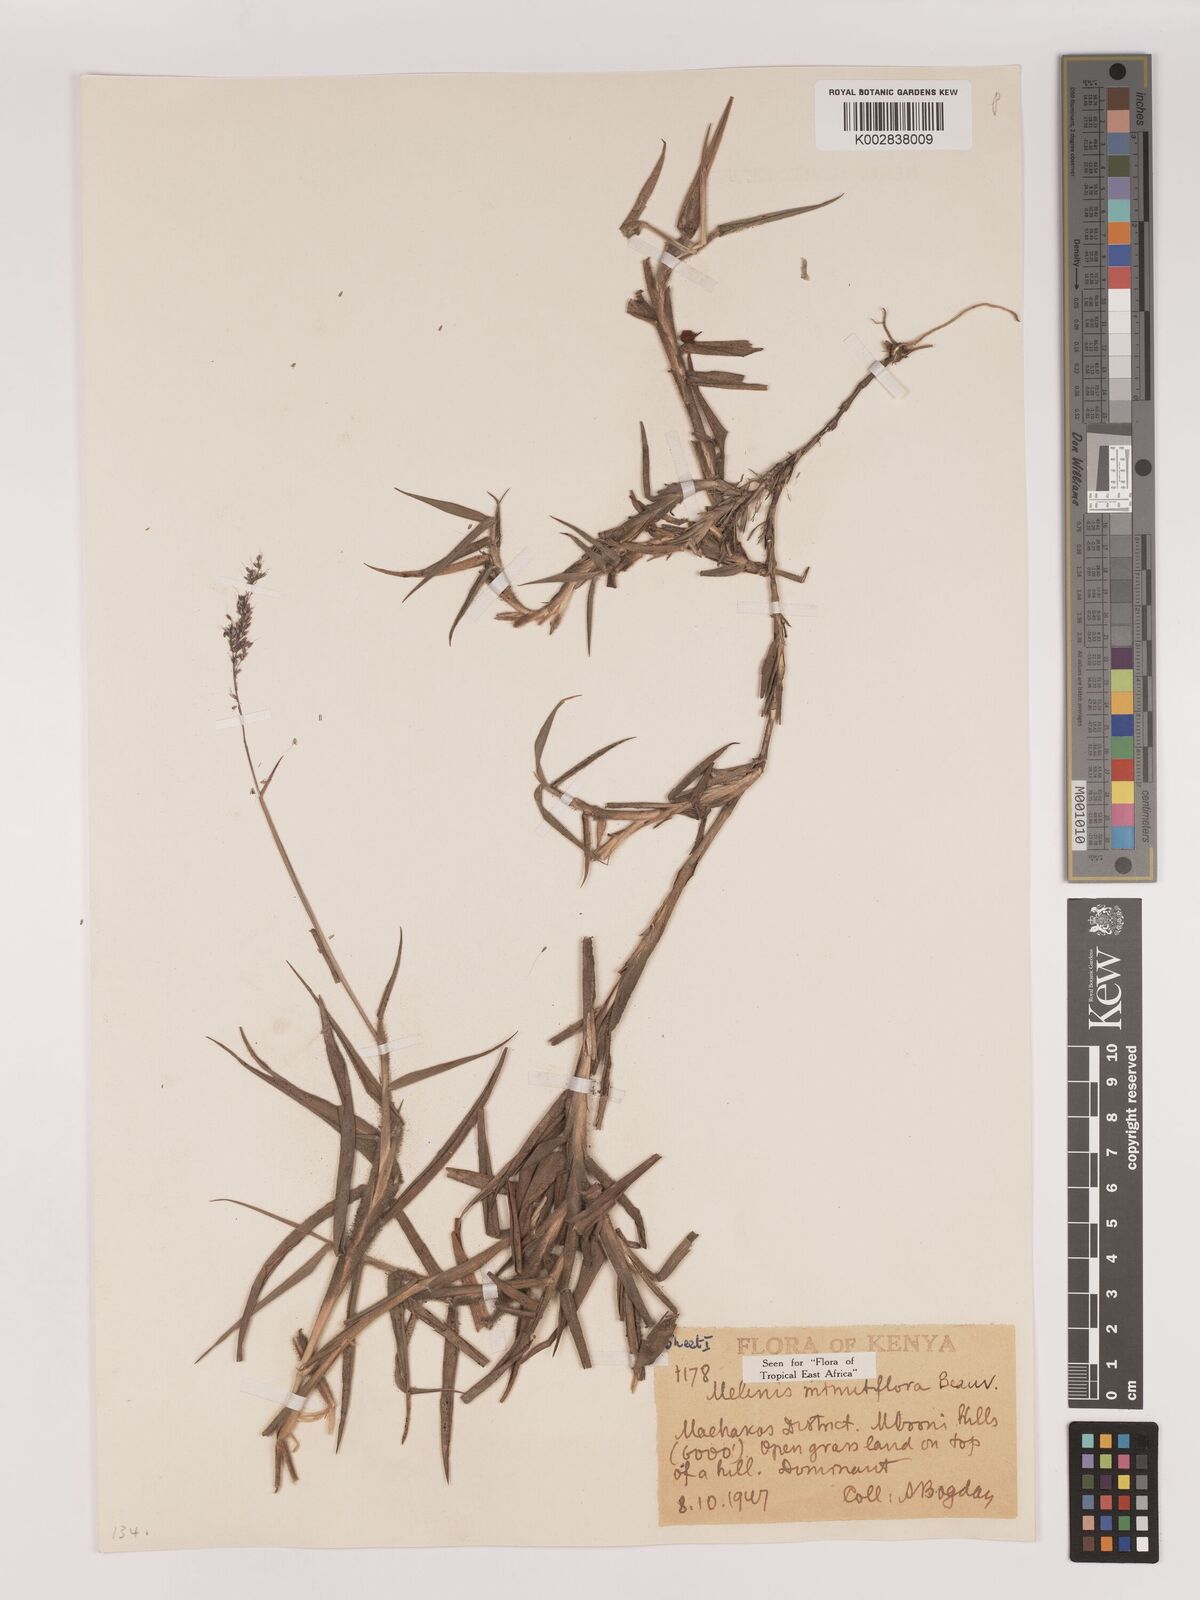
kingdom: Plantae
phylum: Tracheophyta
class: Liliopsida
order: Poales
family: Poaceae
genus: Melinis
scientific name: Melinis minutiflora
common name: Molassesgrass
